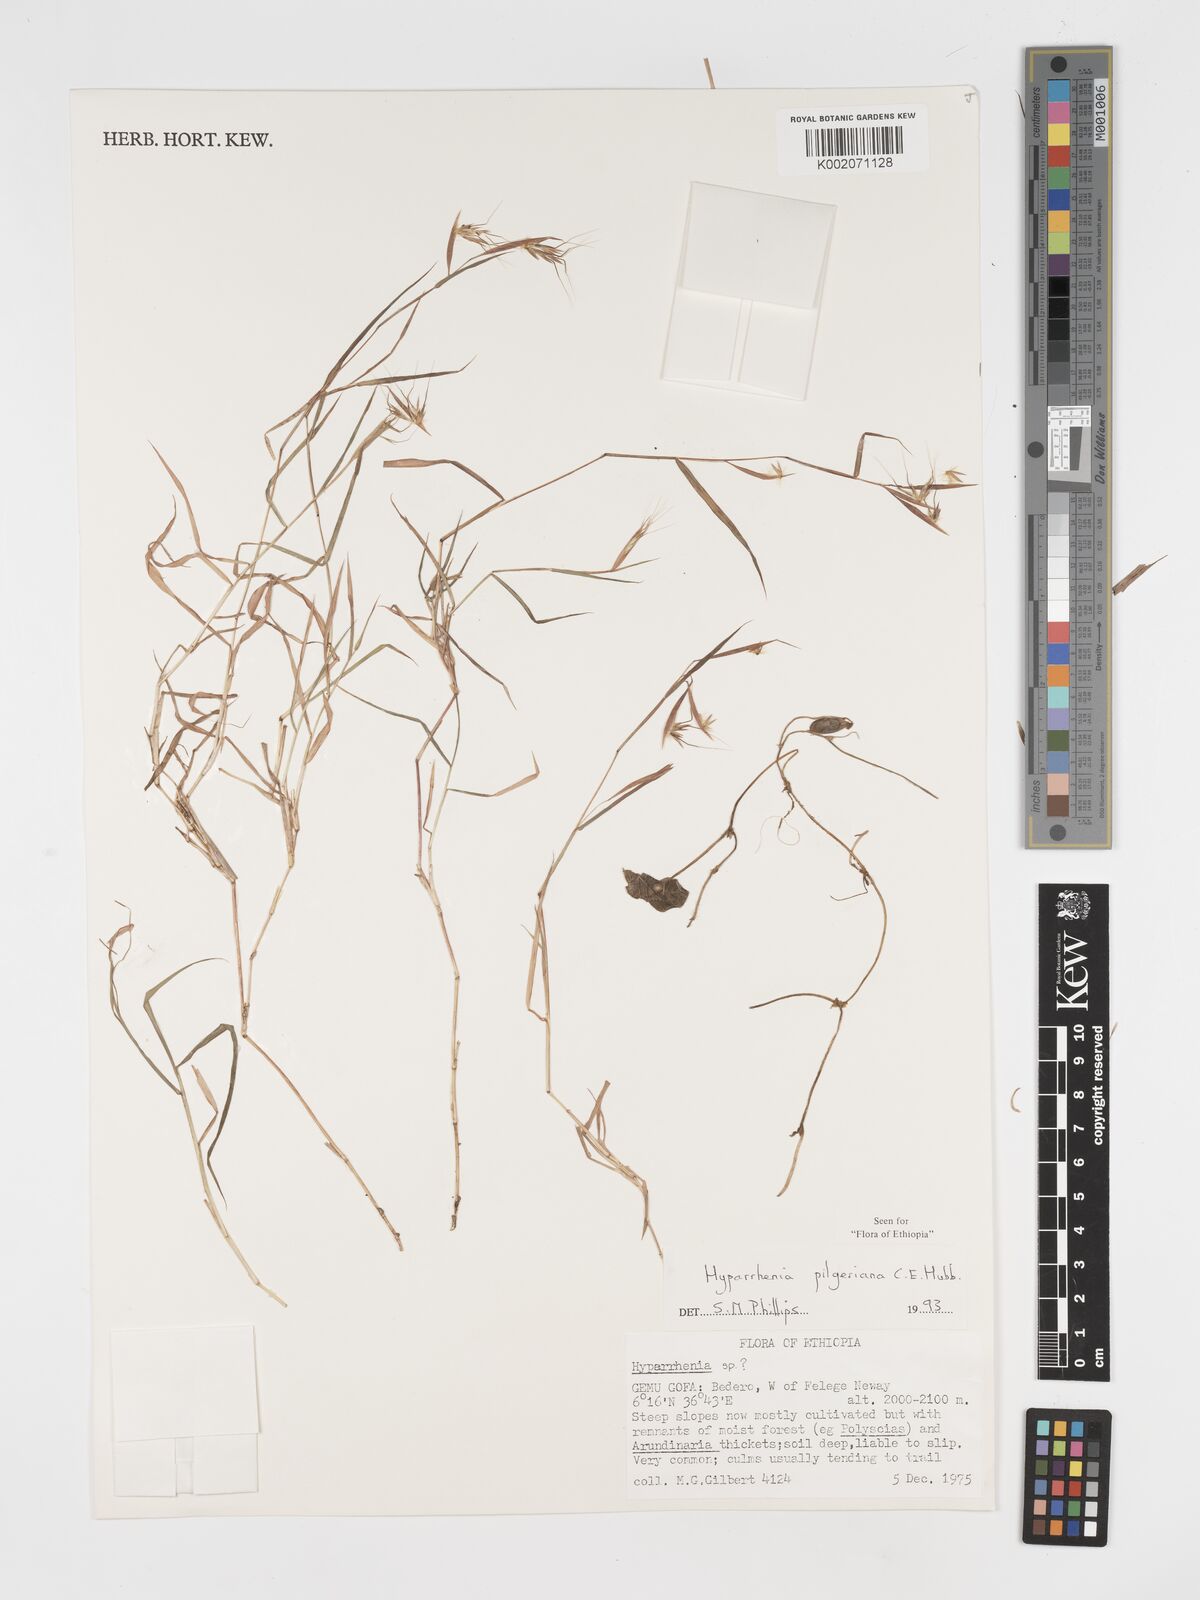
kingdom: Plantae
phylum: Tracheophyta
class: Liliopsida
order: Poales
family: Poaceae
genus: Hyparrhenia
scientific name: Hyparrhenia pilgeriana
